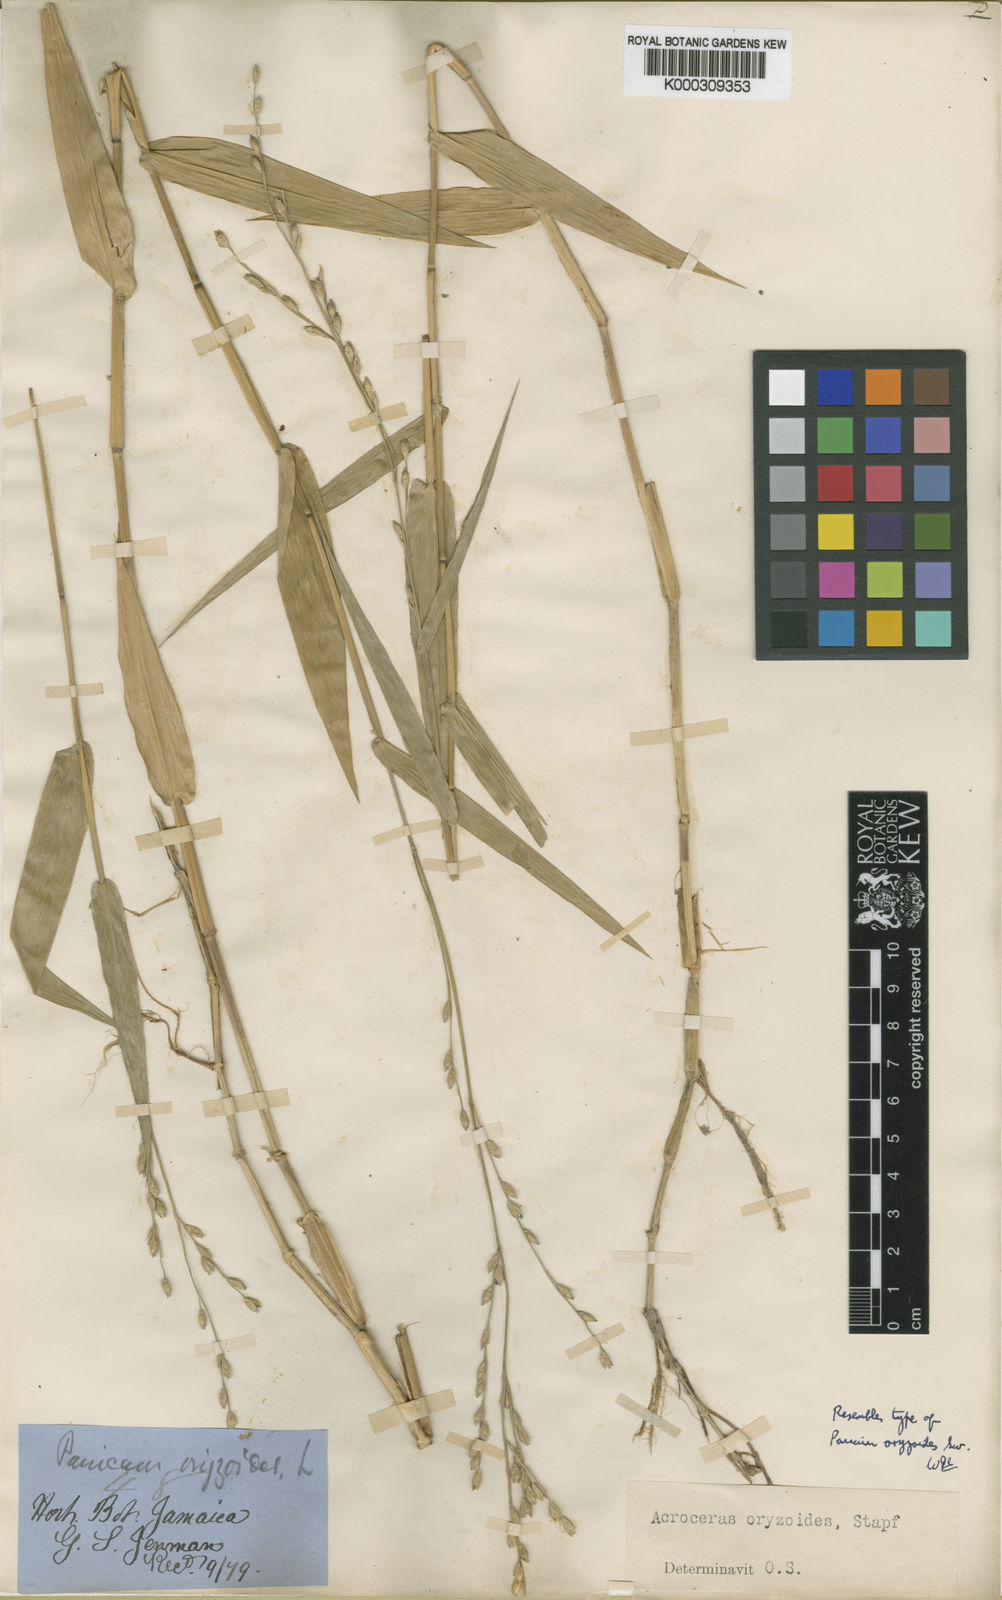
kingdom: Plantae
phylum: Tracheophyta
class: Liliopsida
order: Poales
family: Poaceae
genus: Acroceras
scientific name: Acroceras zizanioides
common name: Oat grass
